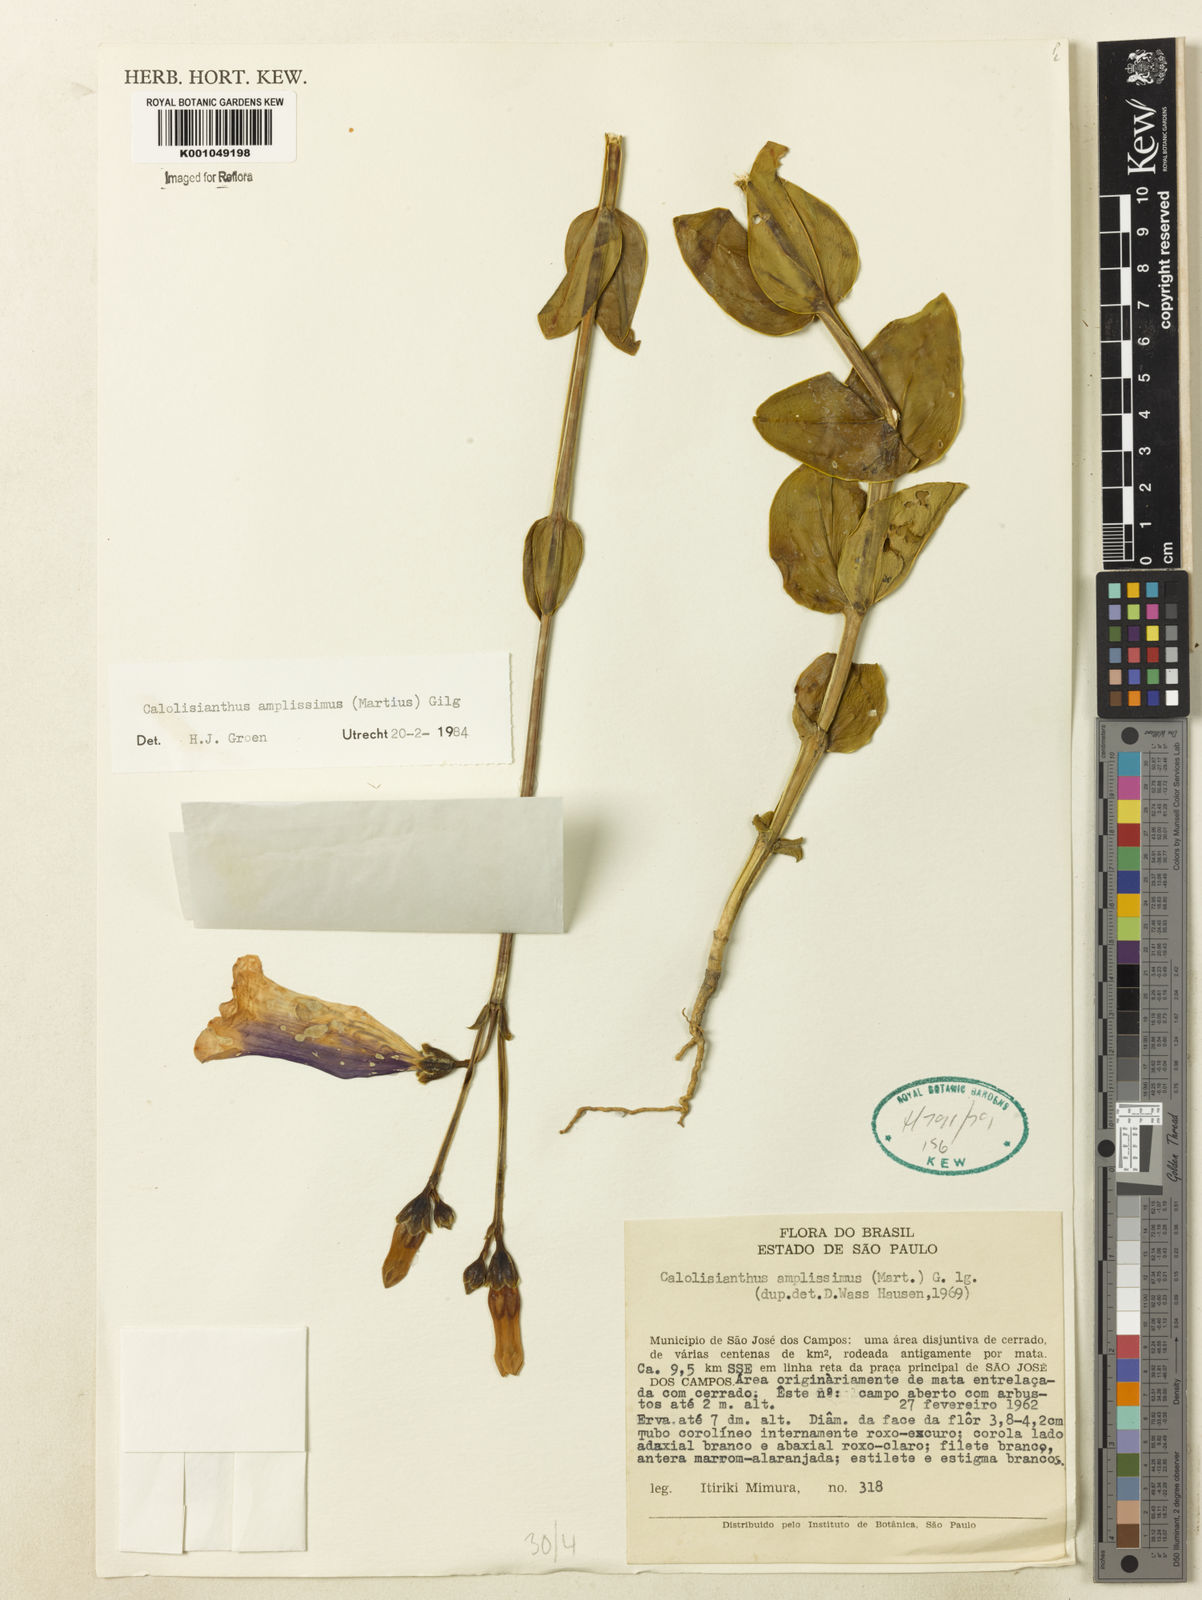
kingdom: Plantae
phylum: Tracheophyta
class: Magnoliopsida
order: Gentianales
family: Gentianaceae
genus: Calolisianthus
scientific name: Calolisianthus amplissimus
